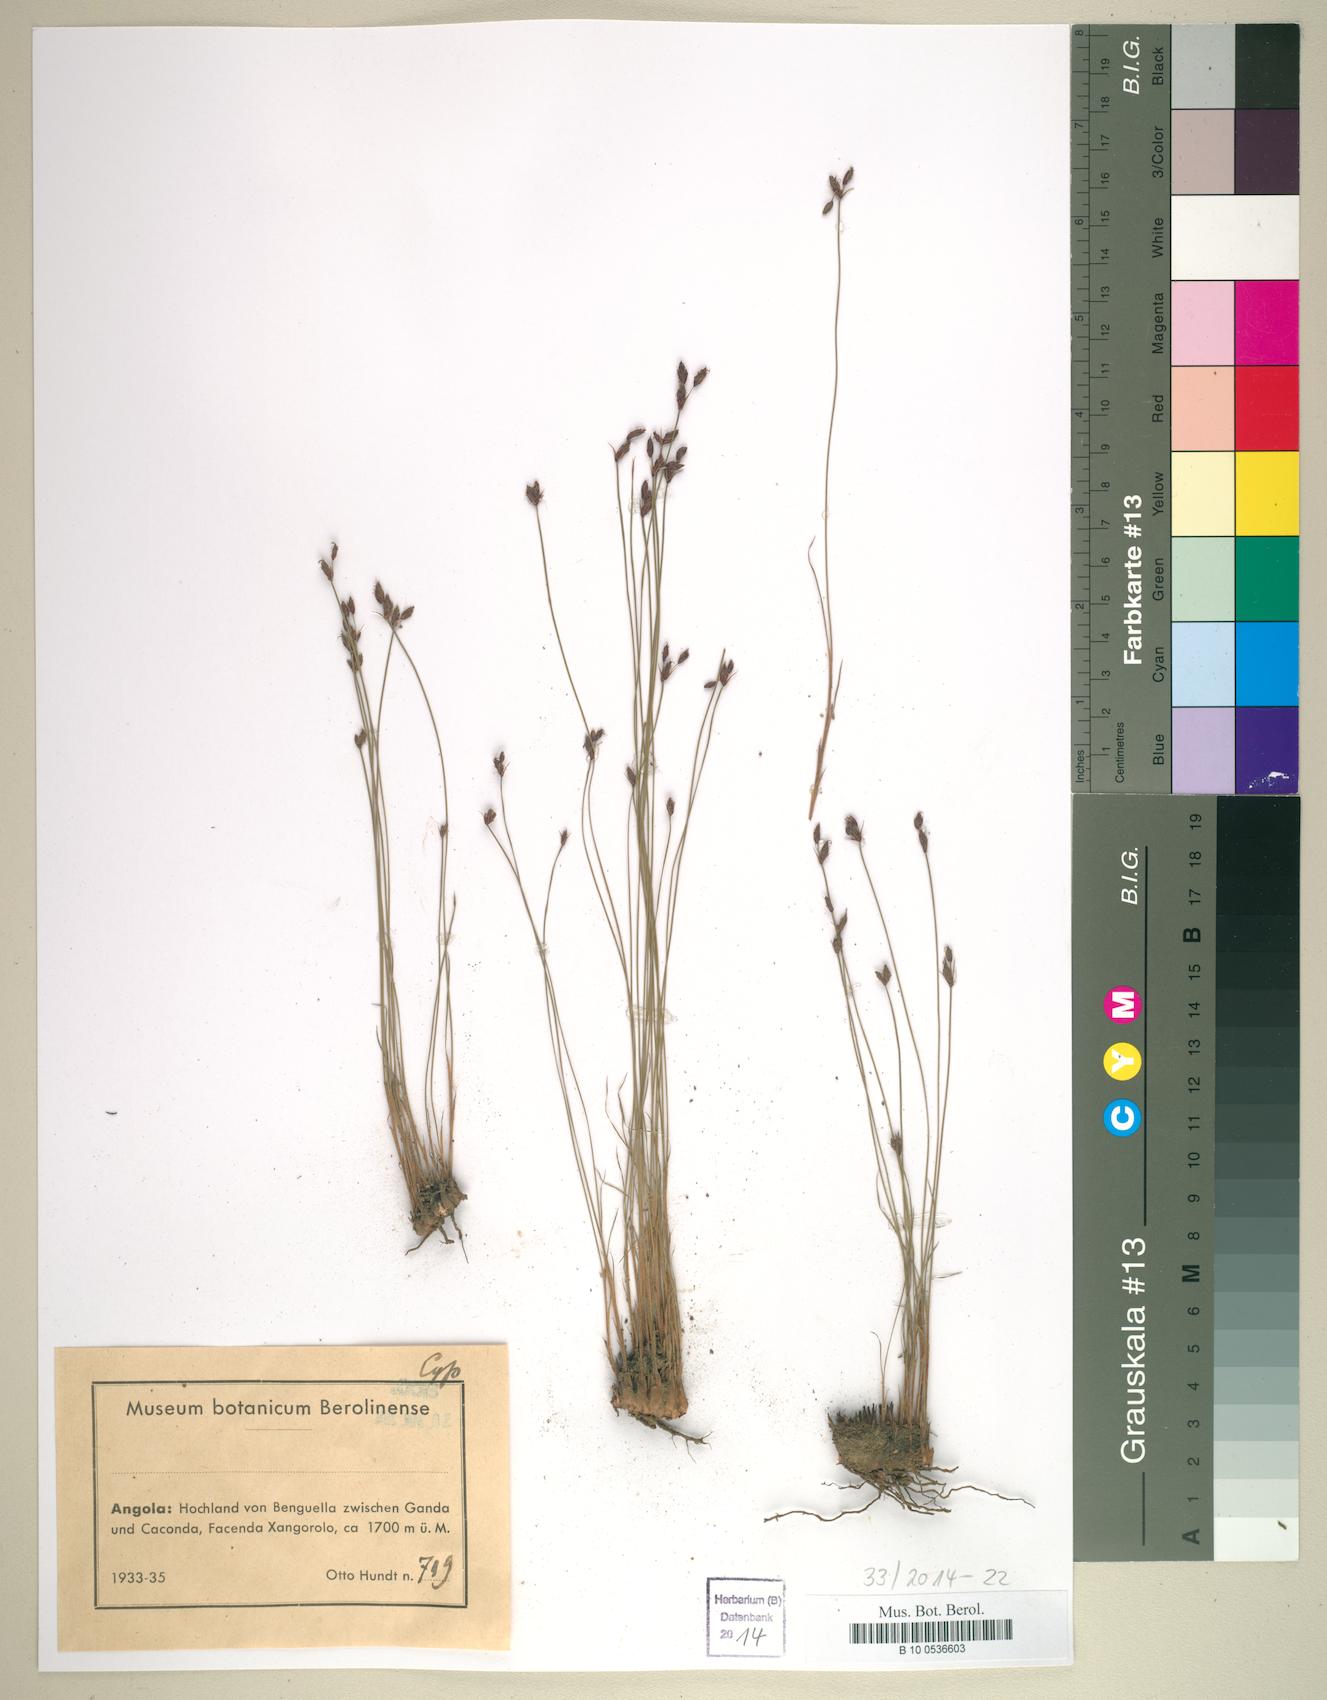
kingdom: Plantae
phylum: Tracheophyta
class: Liliopsida
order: Poales
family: Cyperaceae
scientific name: Cyperaceae
